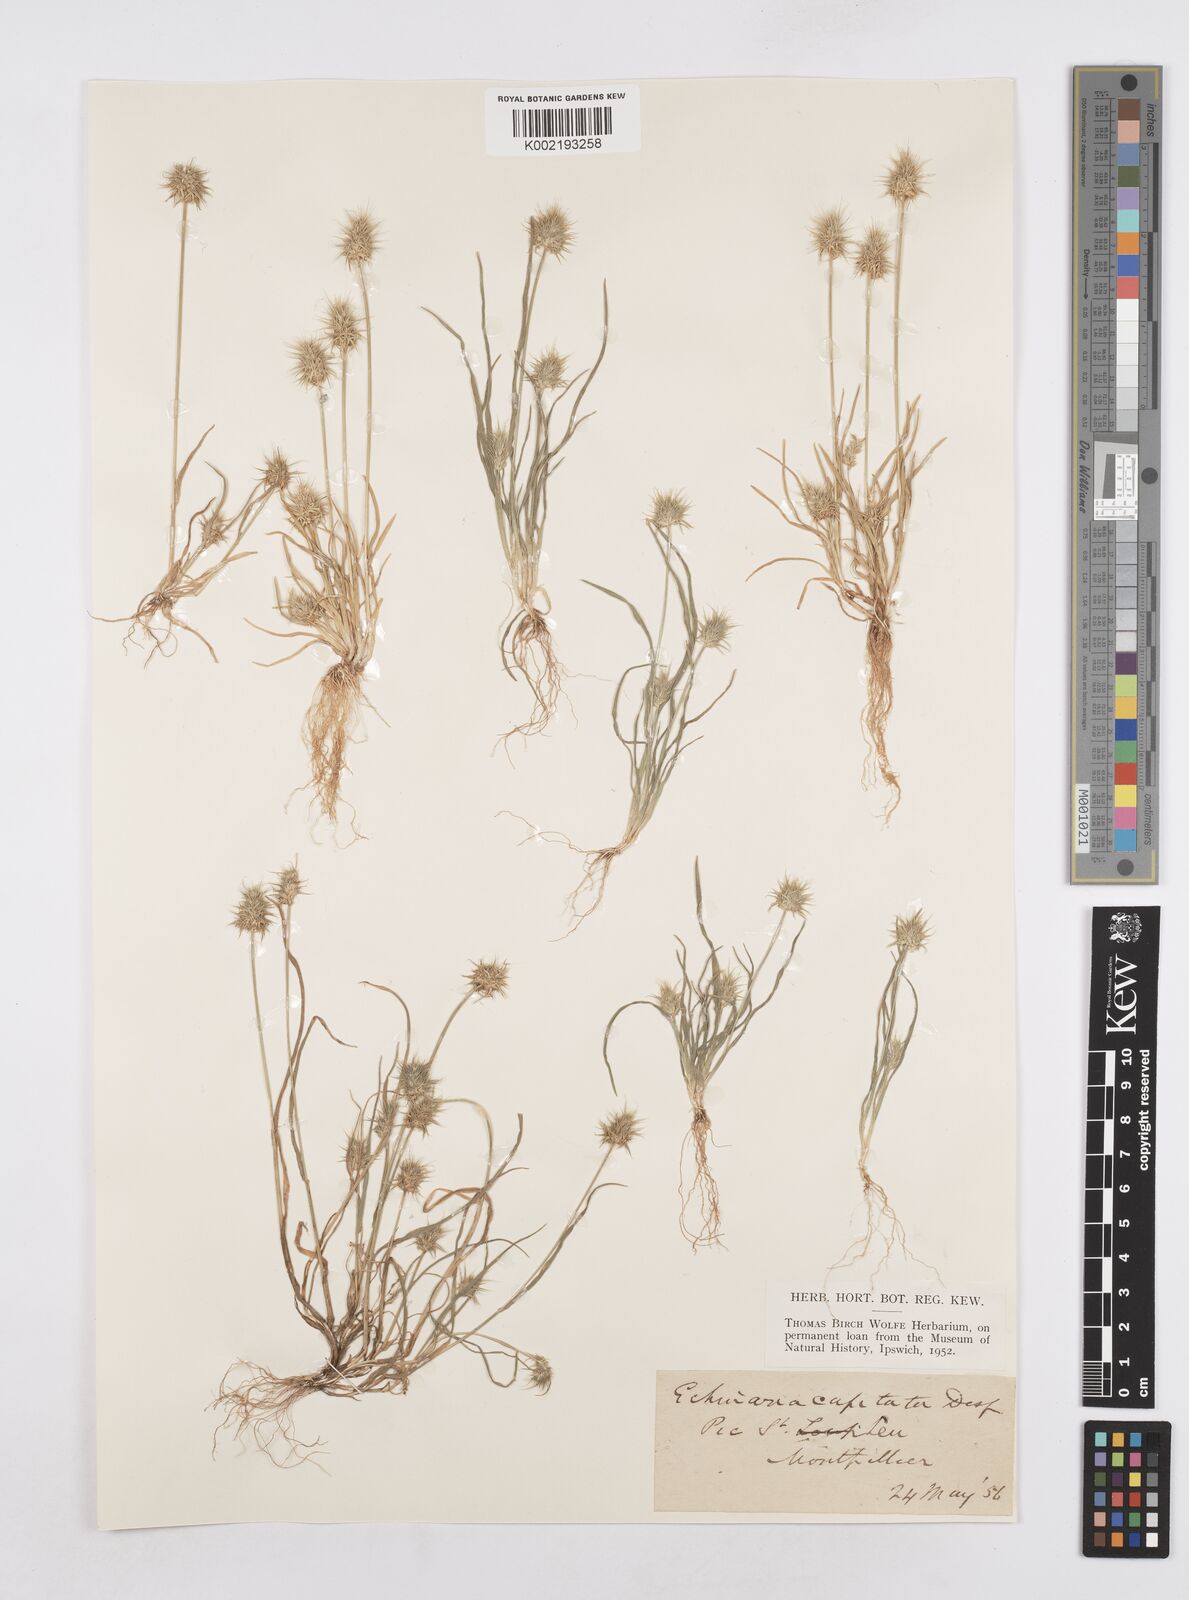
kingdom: Plantae
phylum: Tracheophyta
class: Liliopsida
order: Poales
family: Poaceae
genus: Echinaria
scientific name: Echinaria capitata
